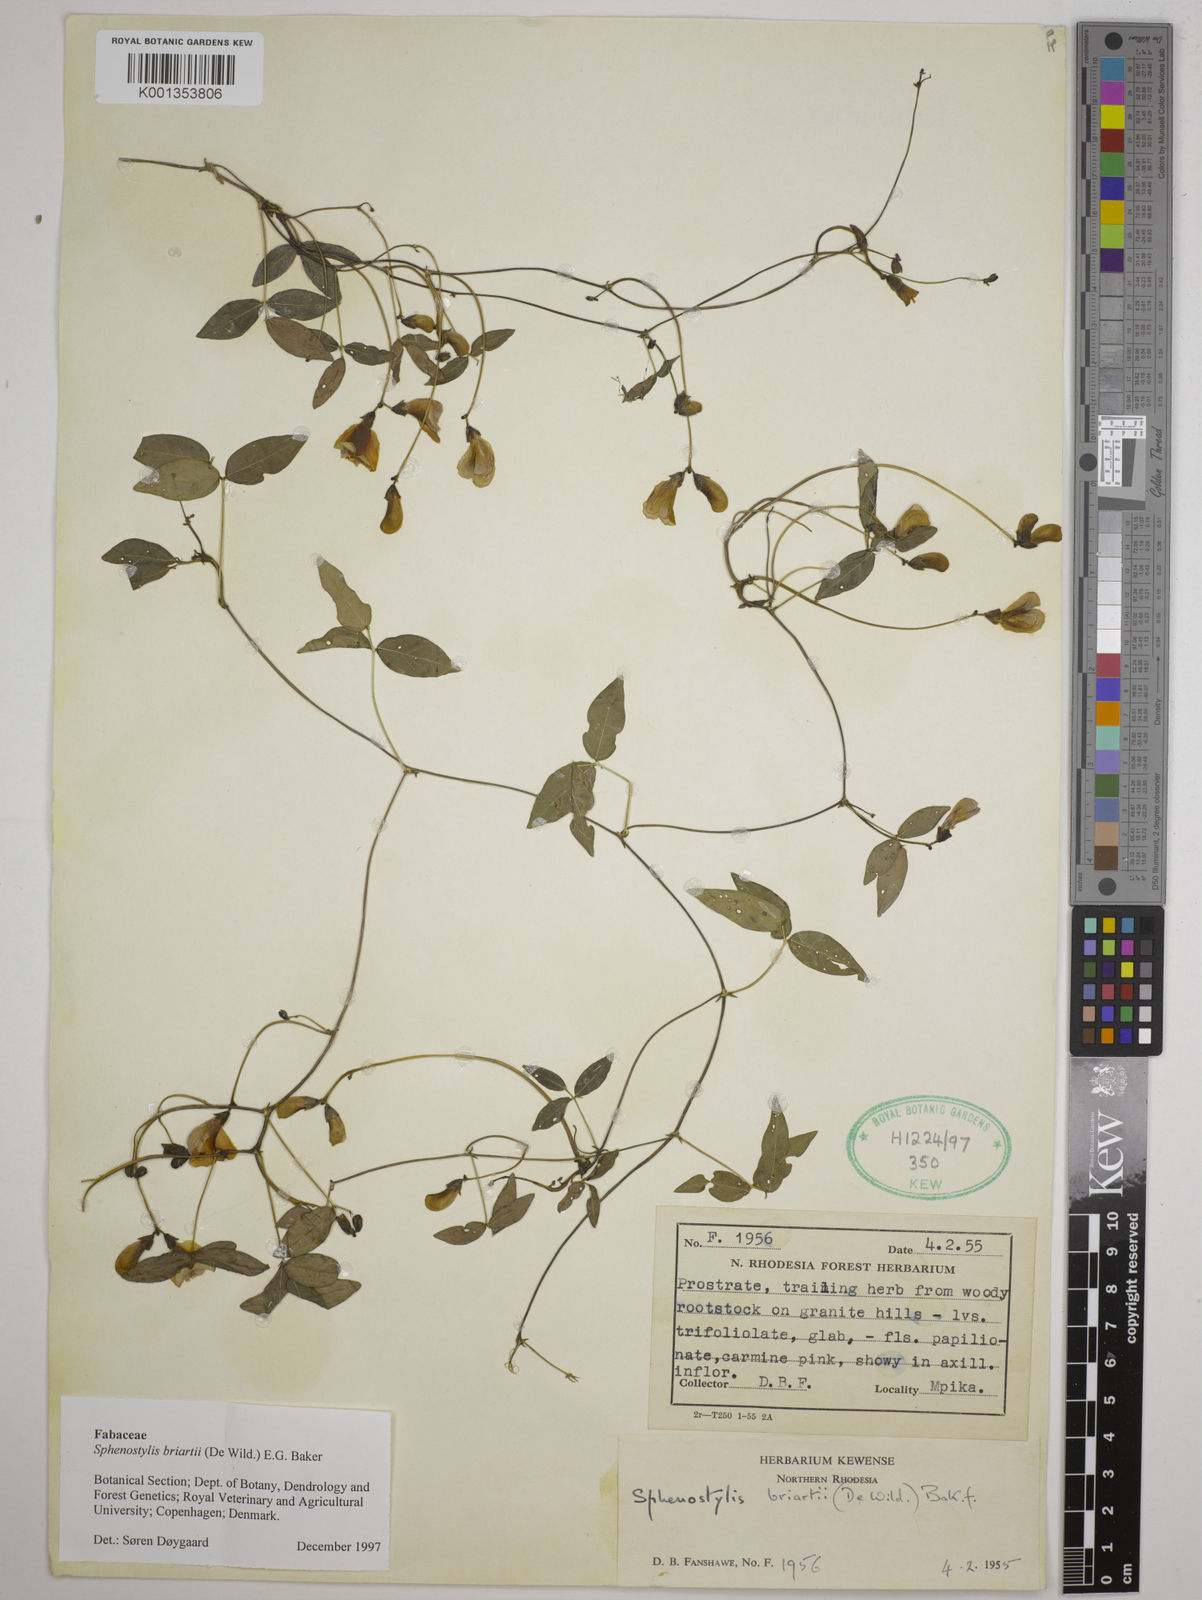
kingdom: Plantae
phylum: Tracheophyta
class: Magnoliopsida
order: Fabales
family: Fabaceae
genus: Sphenostylis
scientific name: Sphenostylis briartii
